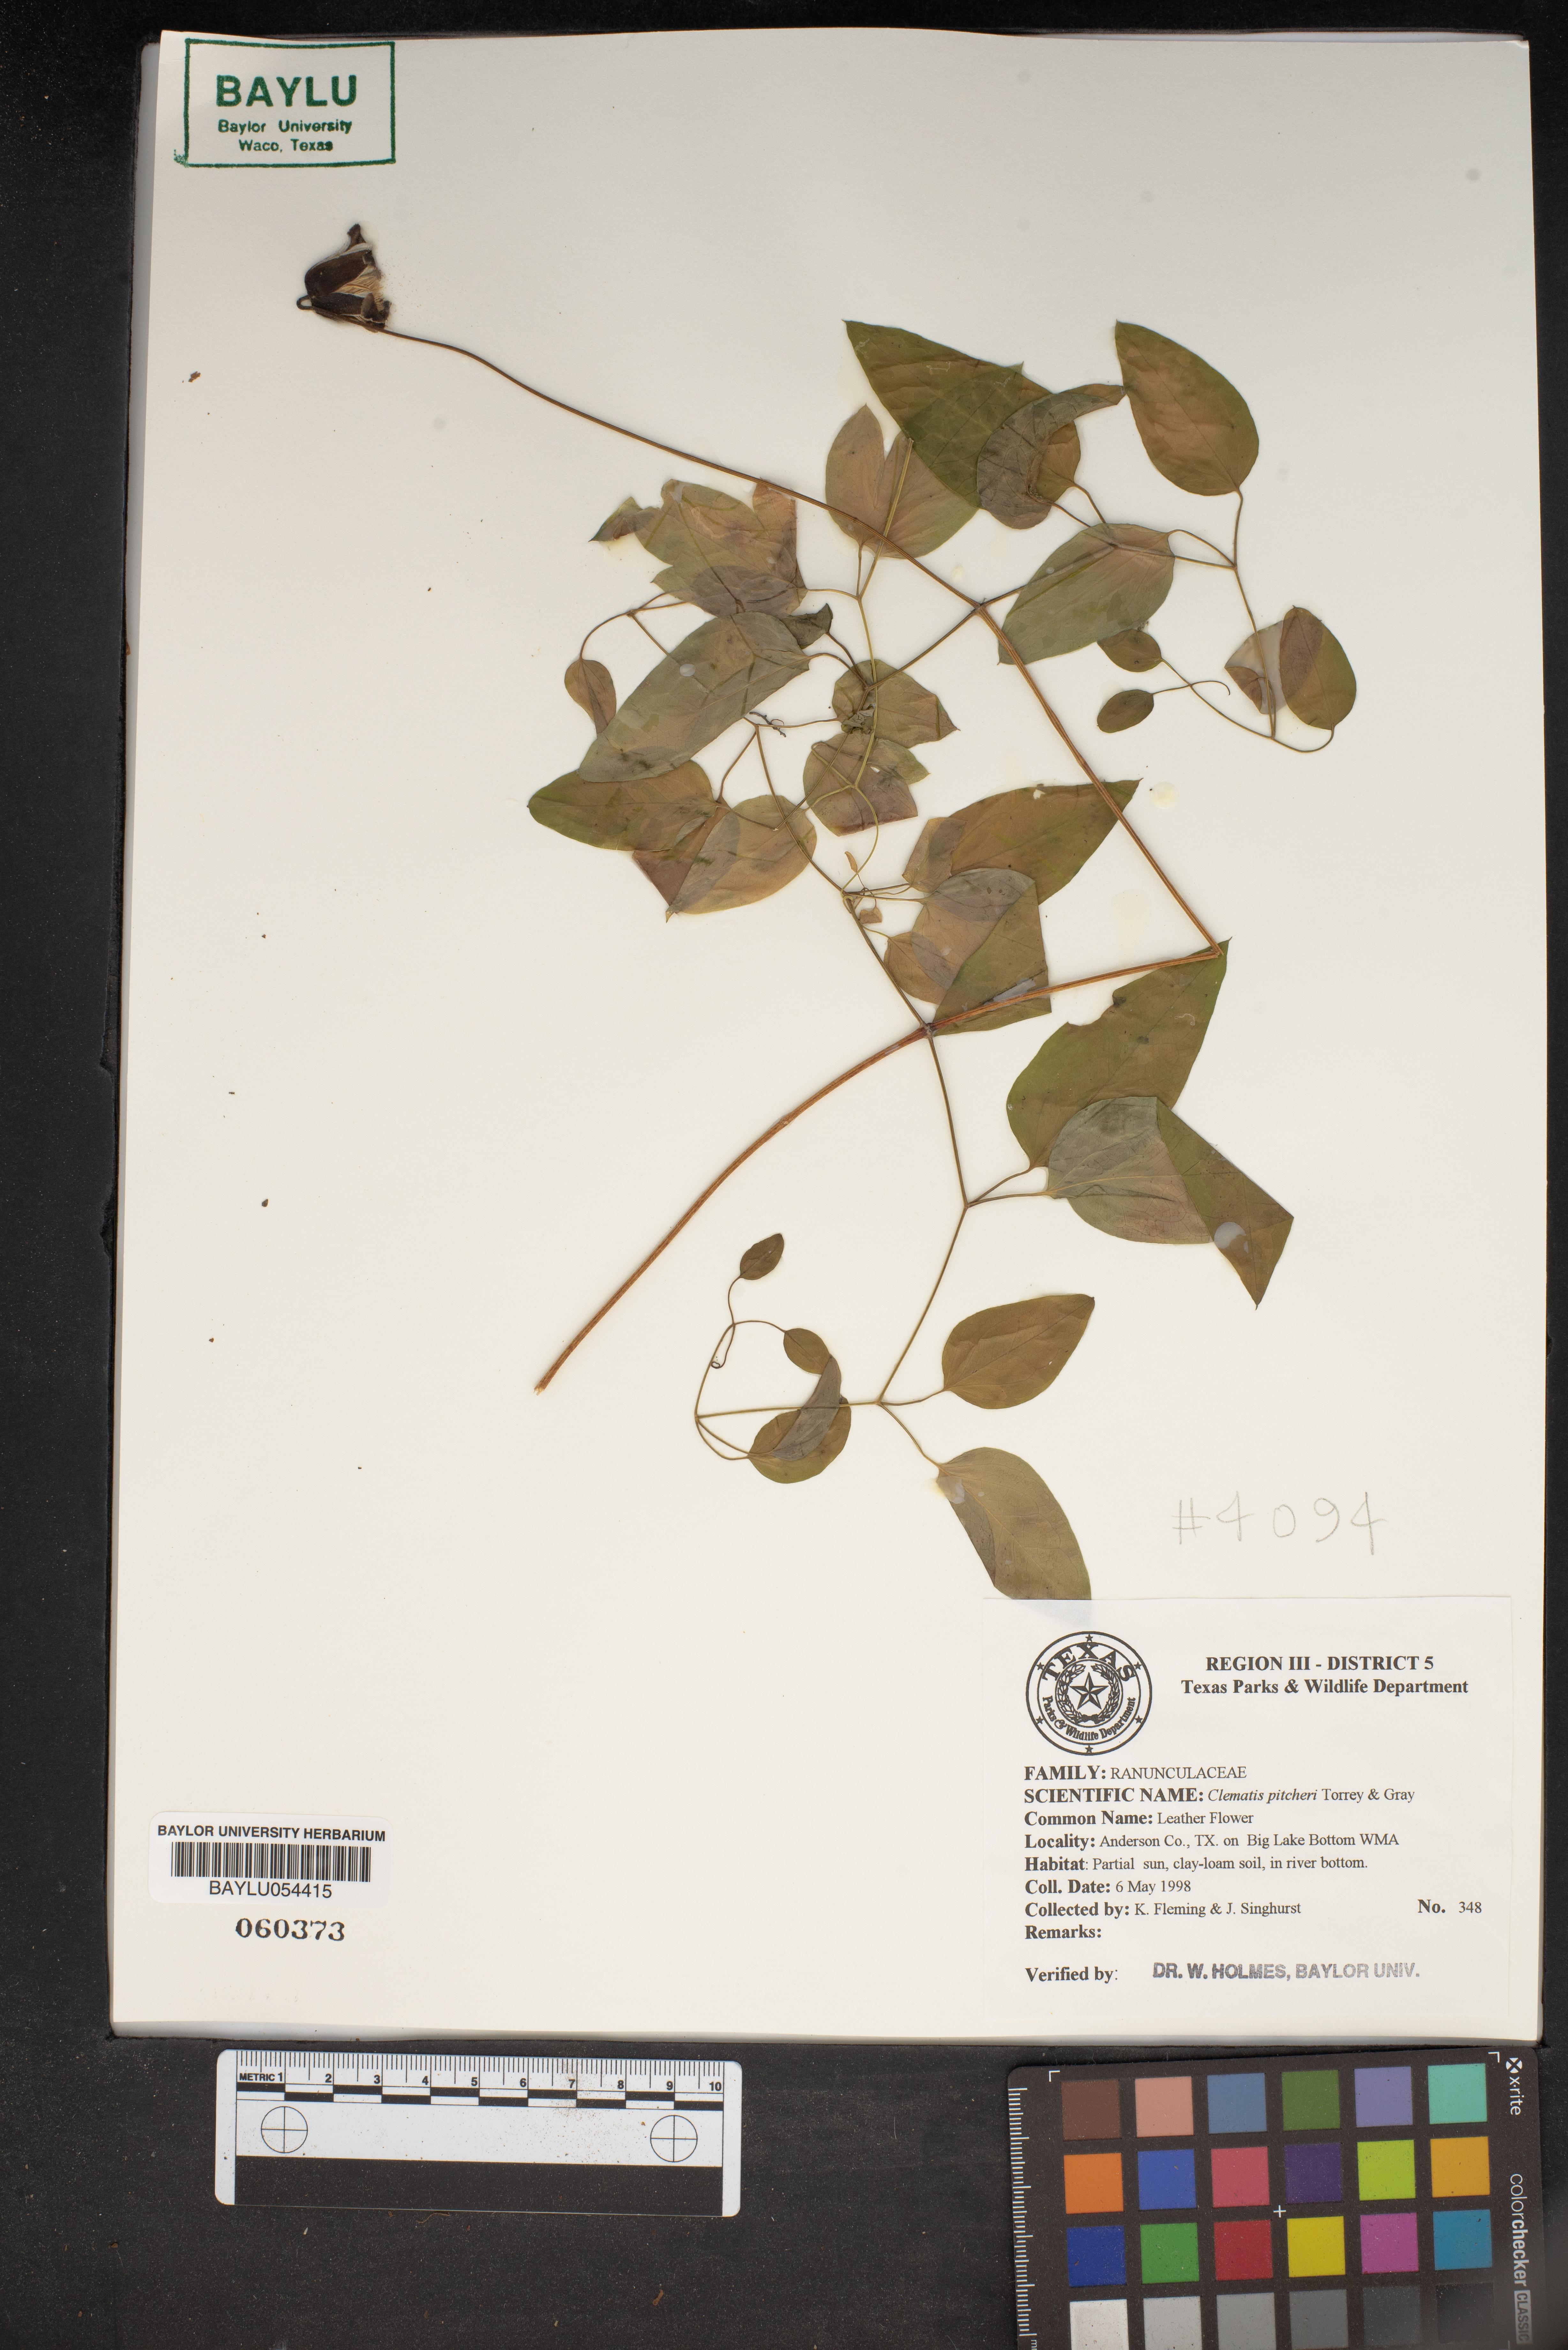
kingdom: Plantae
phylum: Tracheophyta
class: Magnoliopsida
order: Ranunculales
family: Ranunculaceae
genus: Clematis
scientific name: Clematis pitcheri
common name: Bellflower clematis
